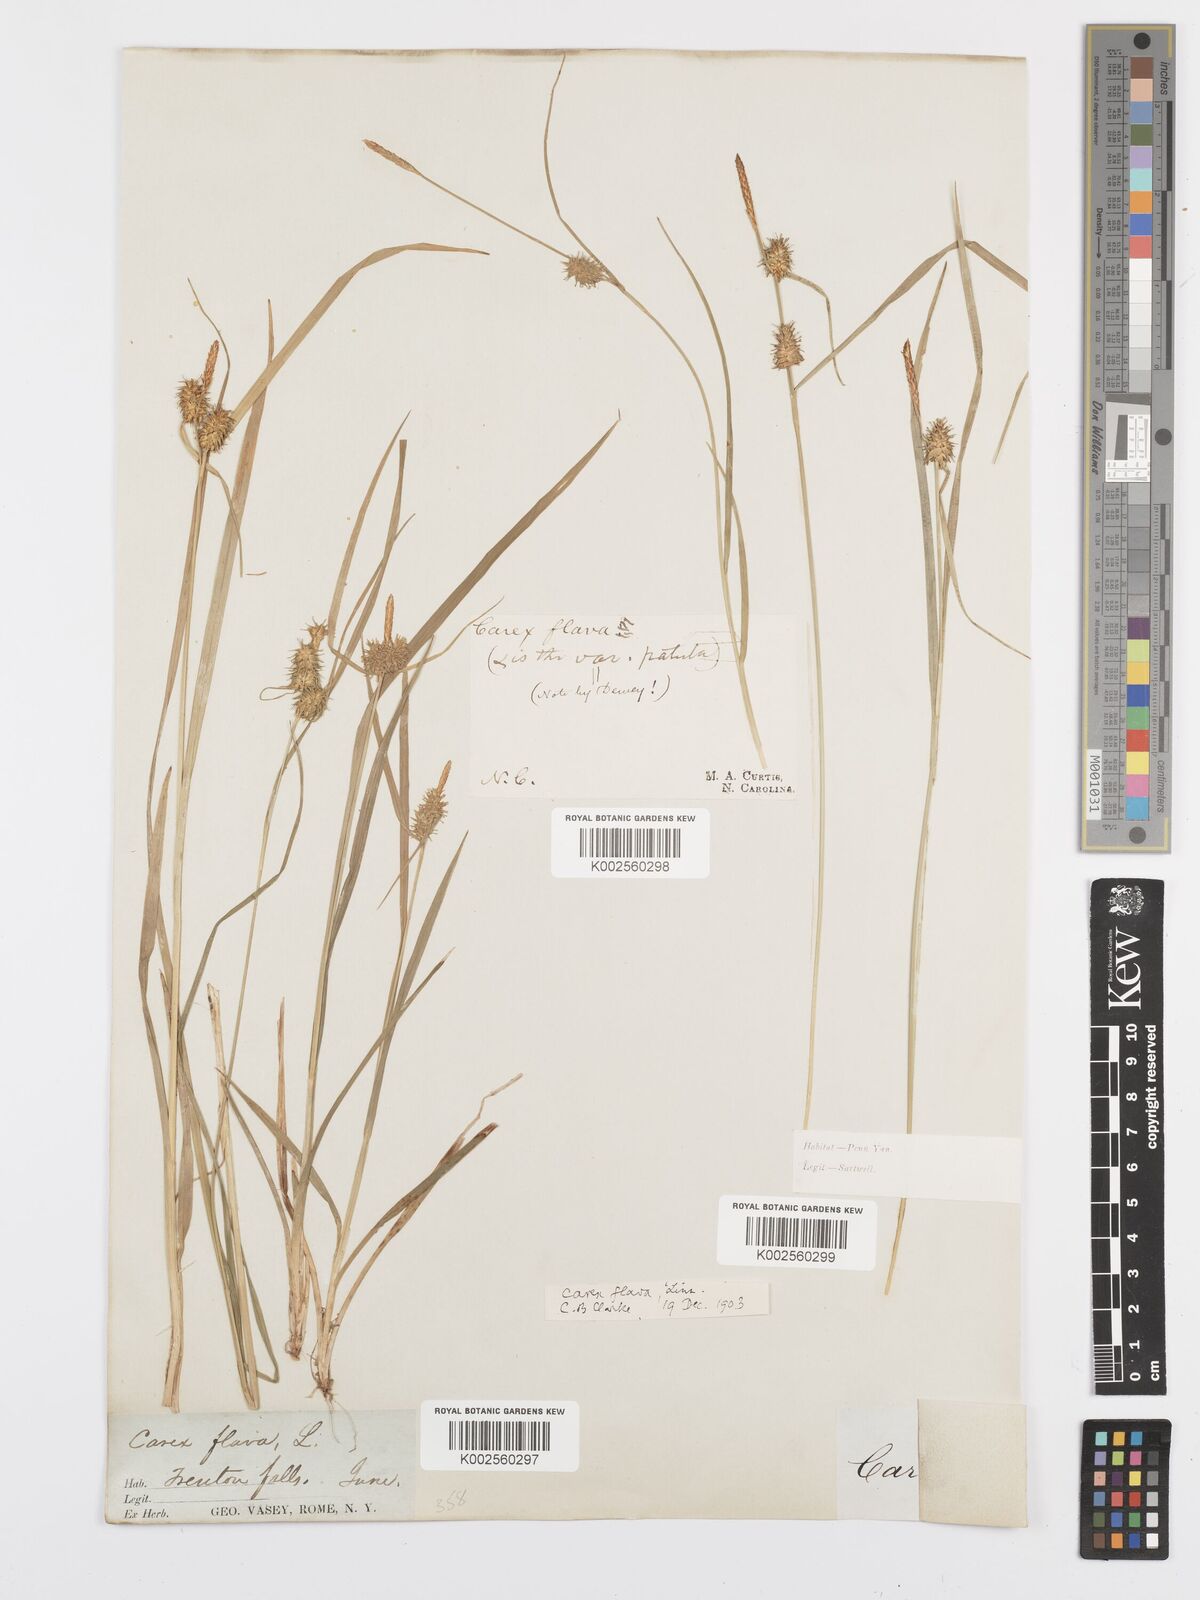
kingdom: Plantae
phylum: Tracheophyta
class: Liliopsida
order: Poales
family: Cyperaceae
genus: Carex
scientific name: Carex flava
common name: Large yellow-sedge
